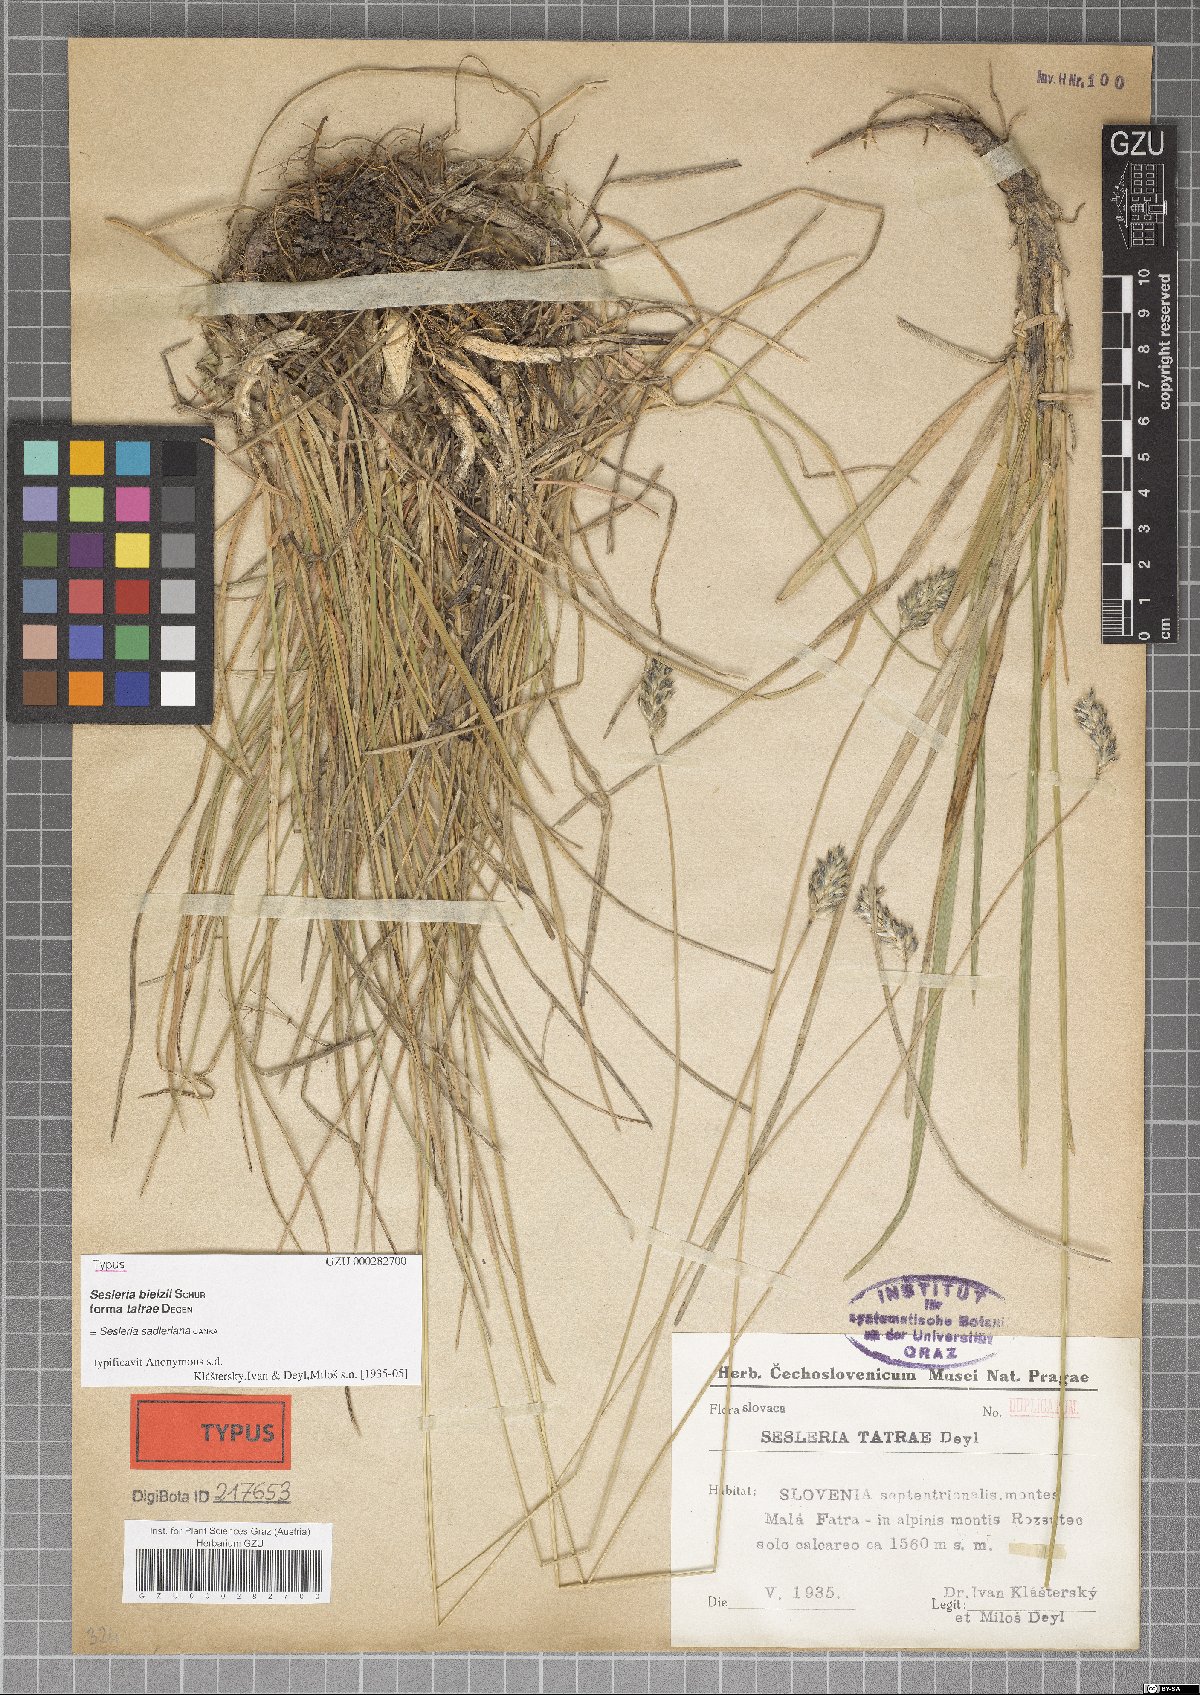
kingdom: Plantae
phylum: Tracheophyta
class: Liliopsida
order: Poales
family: Poaceae
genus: Sesleria
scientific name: Sesleria tatrae
